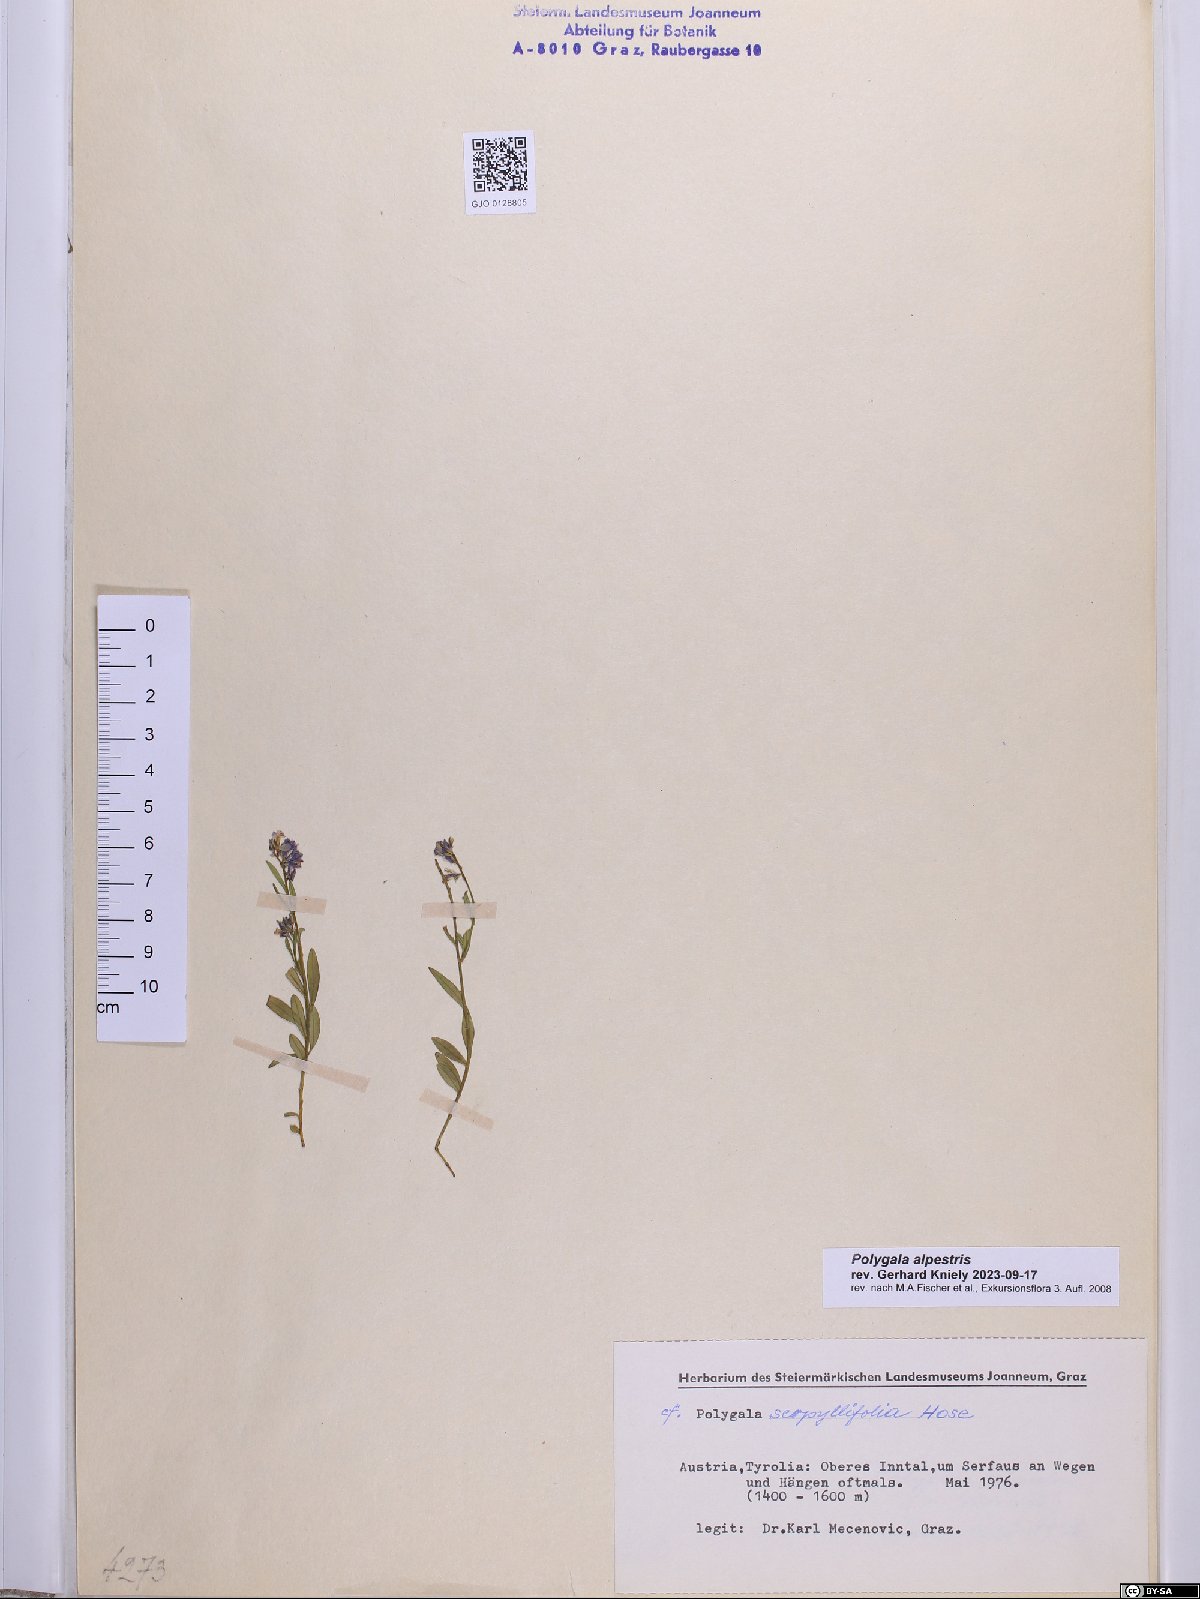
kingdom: Plantae
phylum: Tracheophyta
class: Magnoliopsida
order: Fabales
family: Polygalaceae
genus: Polygala
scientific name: Polygala alpestris
